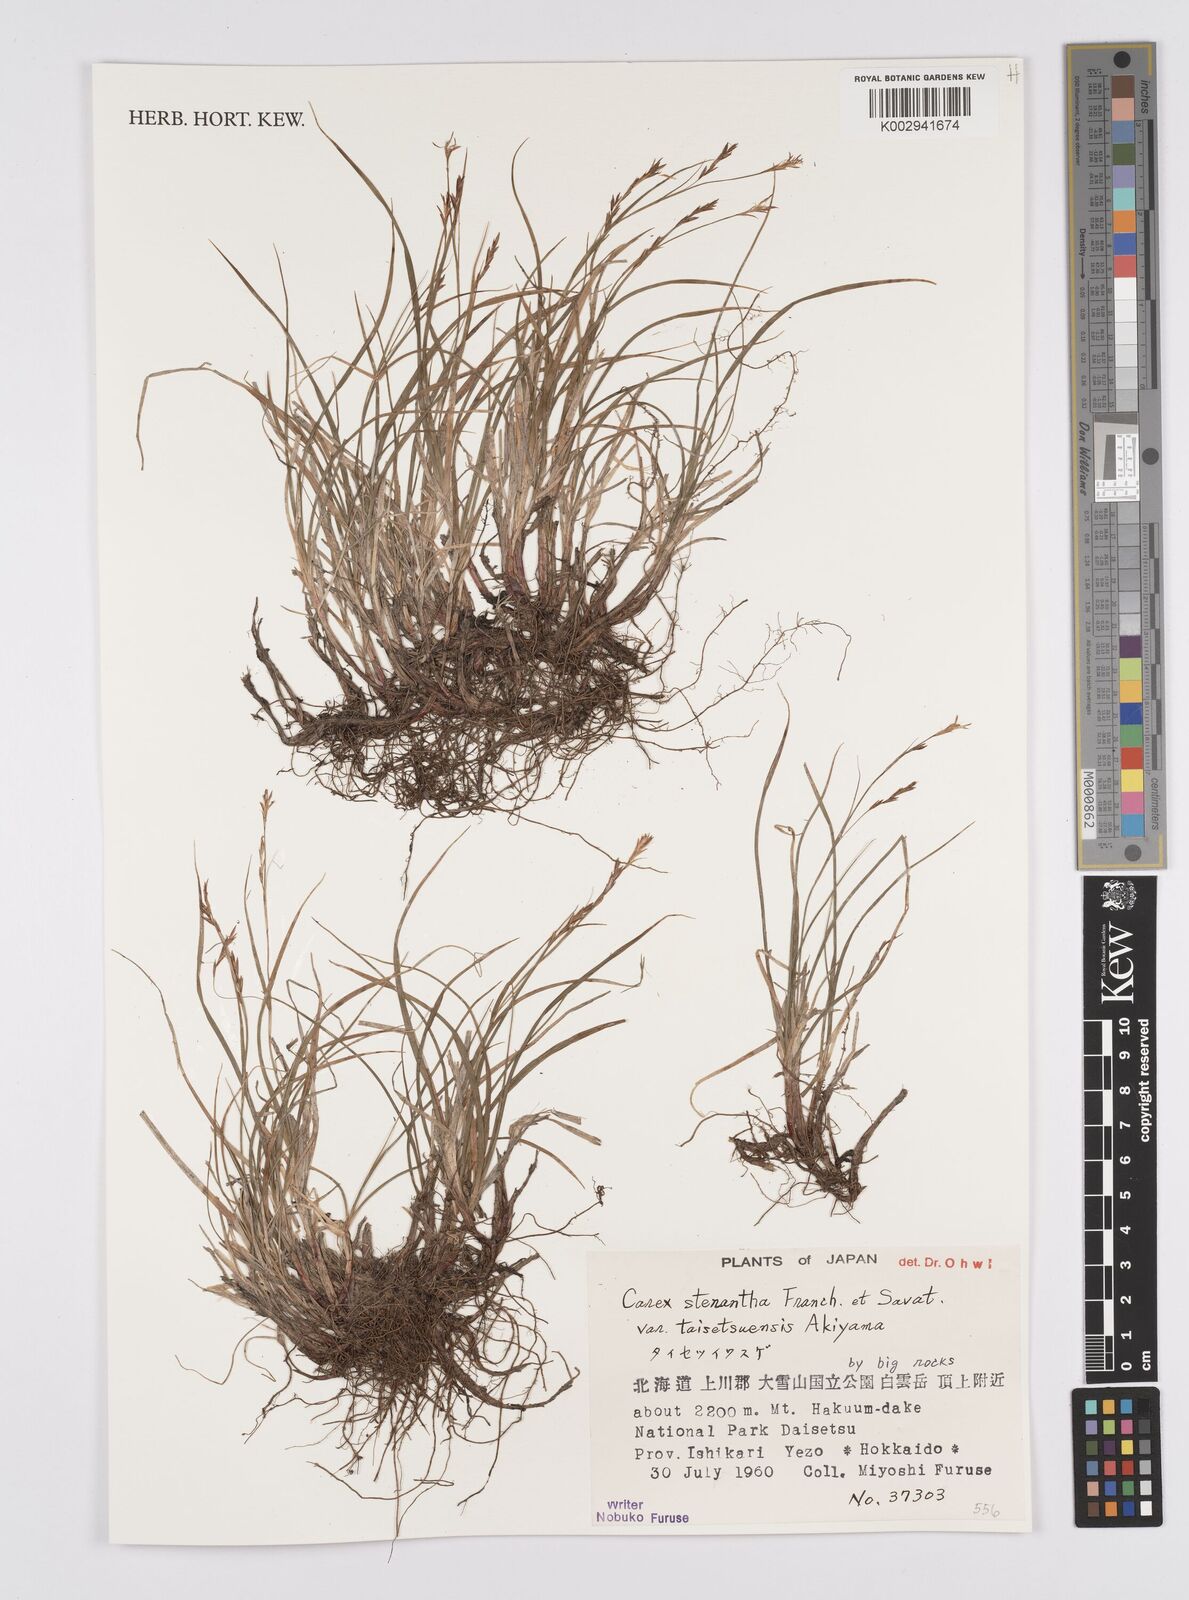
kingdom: Plantae
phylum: Tracheophyta
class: Liliopsida
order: Poales
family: Cyperaceae
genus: Carex
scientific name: Carex stenantha
